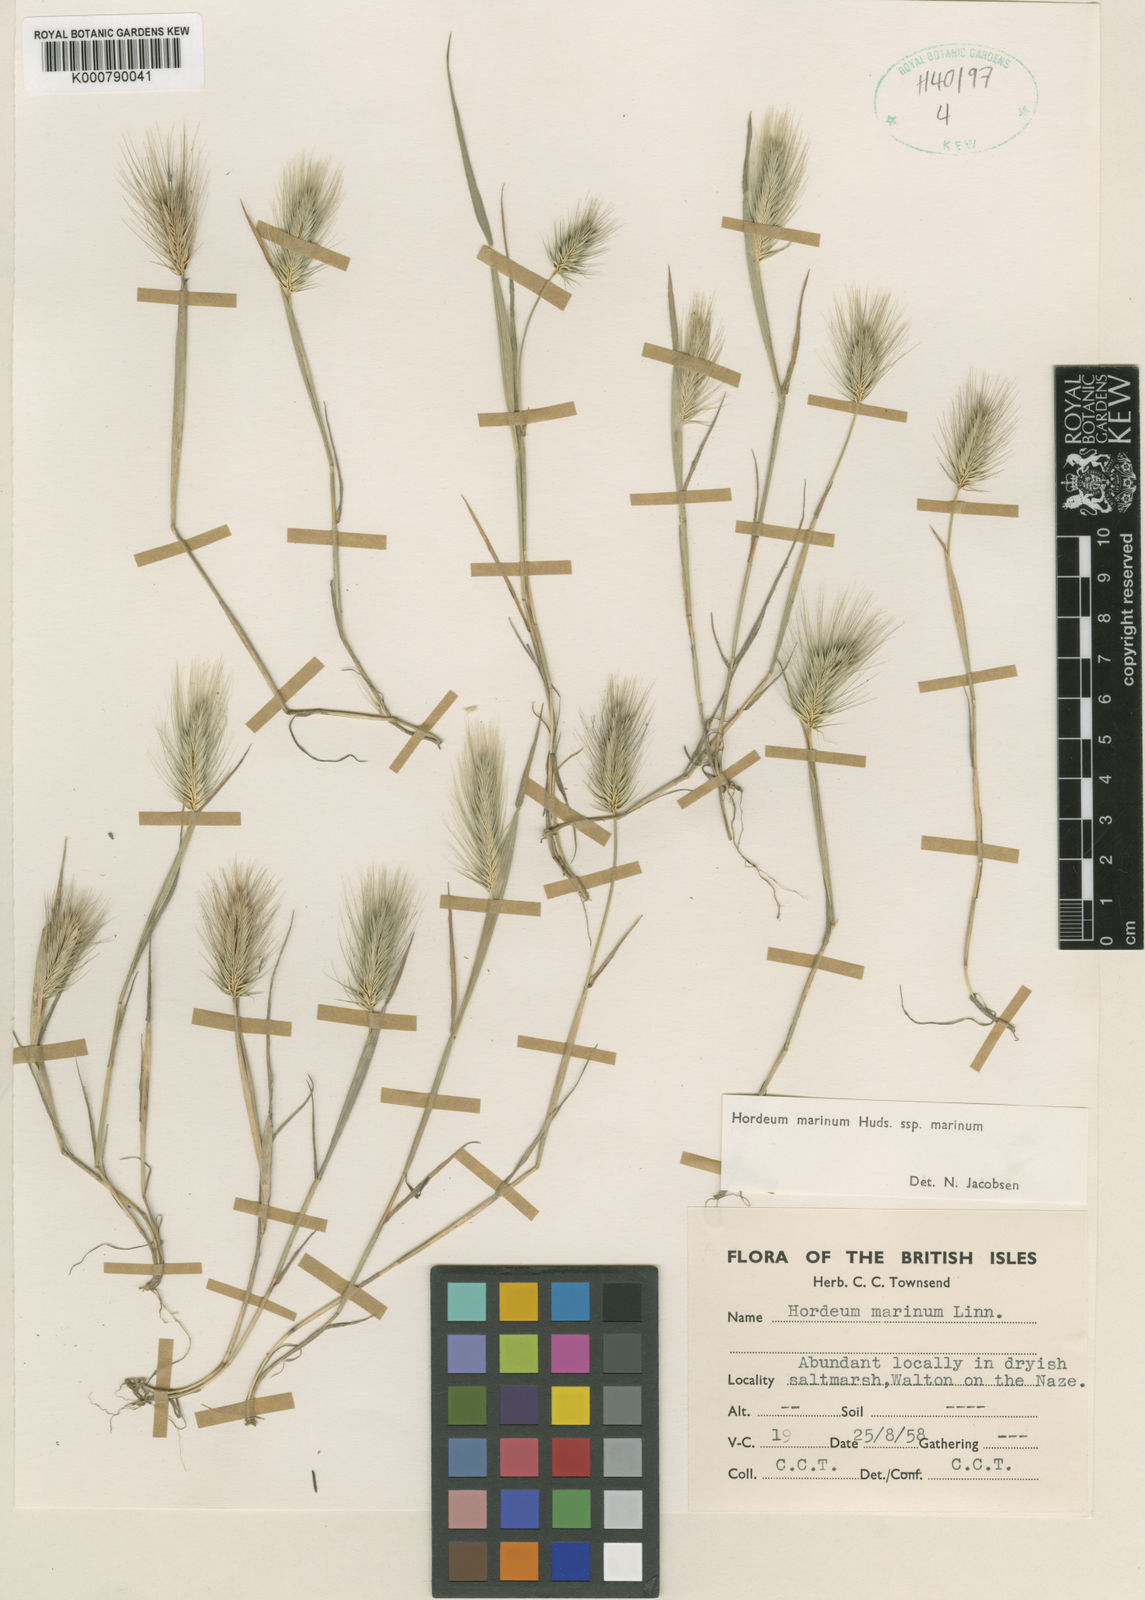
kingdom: Plantae
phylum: Tracheophyta
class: Liliopsida
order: Poales
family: Poaceae
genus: Hordeum
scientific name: Hordeum marinum
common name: Sea barley
